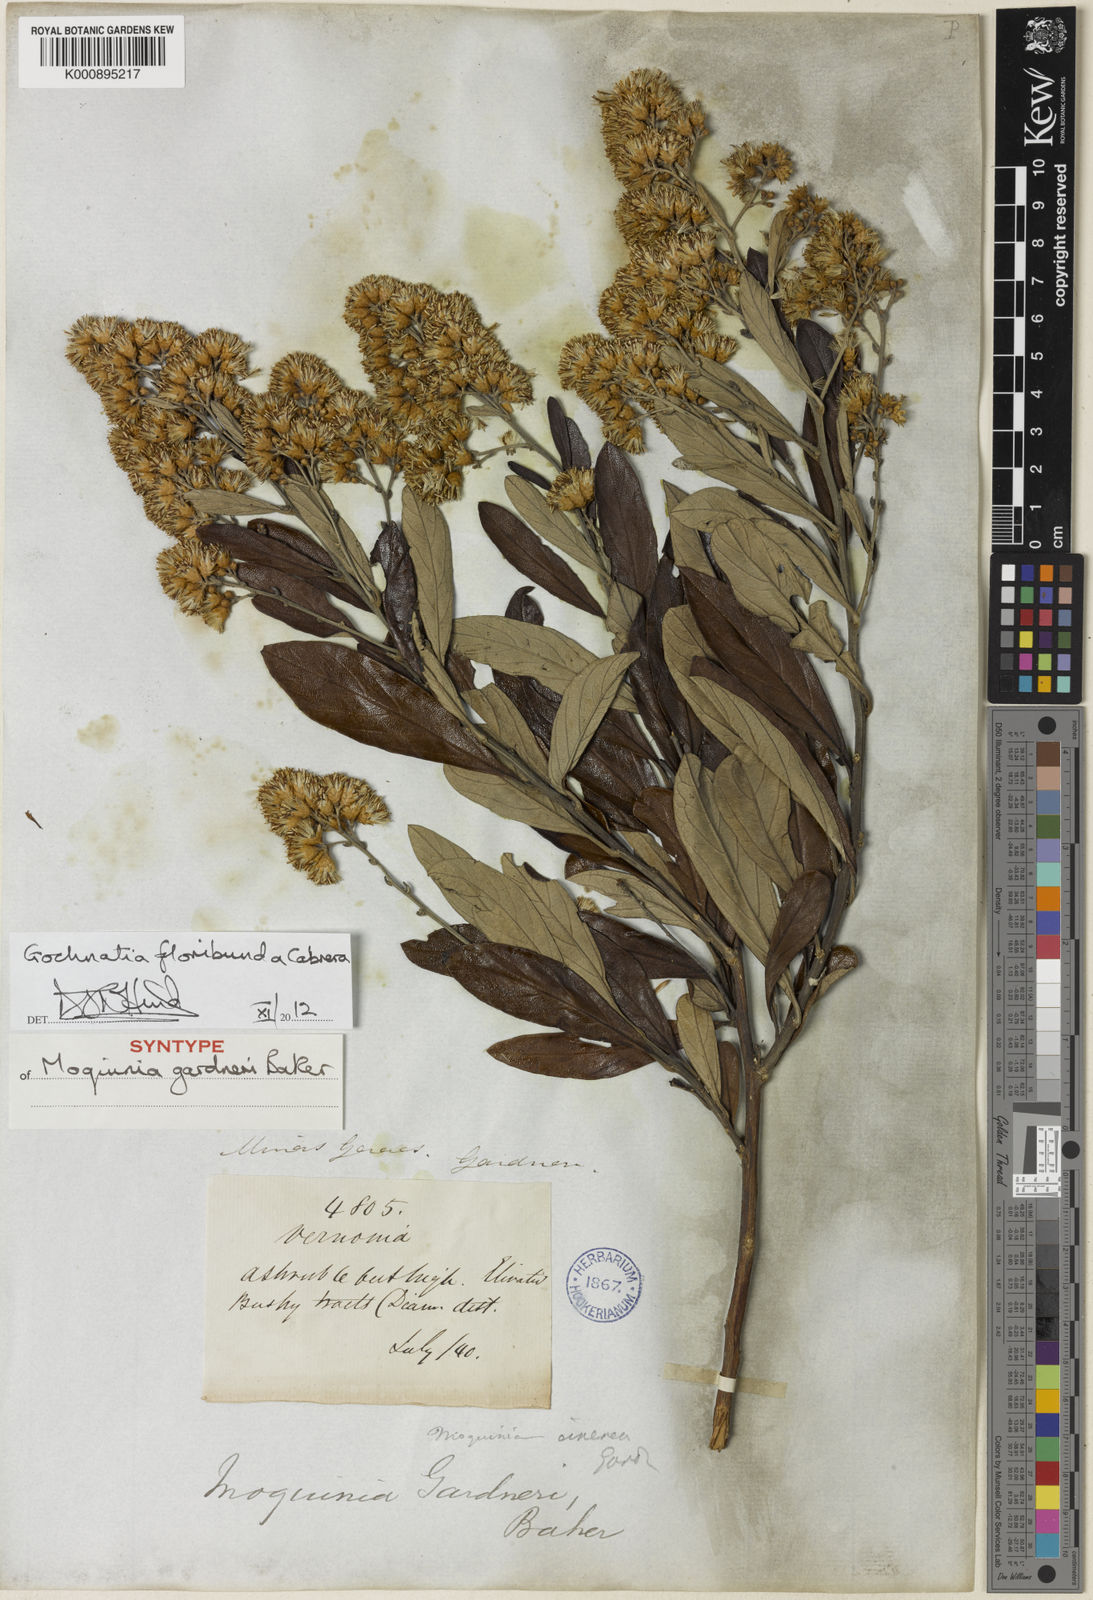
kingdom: Plantae
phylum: Tracheophyta
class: Magnoliopsida
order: Asterales
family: Asteraceae
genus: Moquiniastrum
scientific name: Moquiniastrum floribundum
